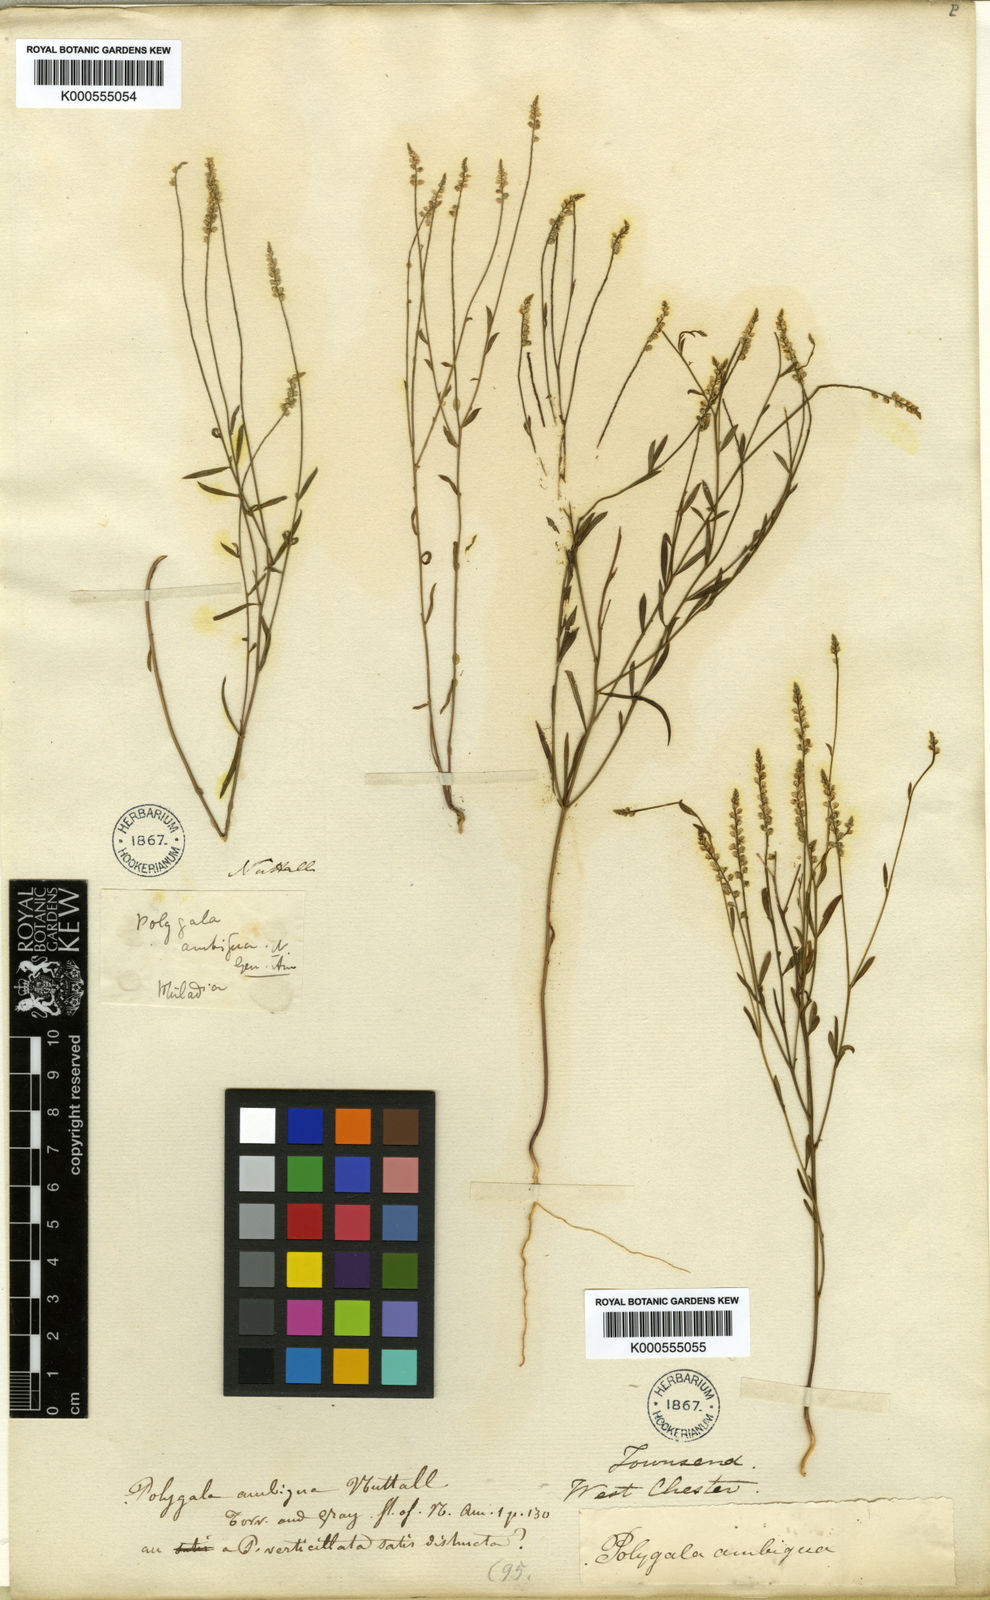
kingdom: Plantae
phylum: Tracheophyta
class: Magnoliopsida
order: Fabales
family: Polygalaceae
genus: Polygala
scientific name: Polygala verticillata
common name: Whorl milkwort
